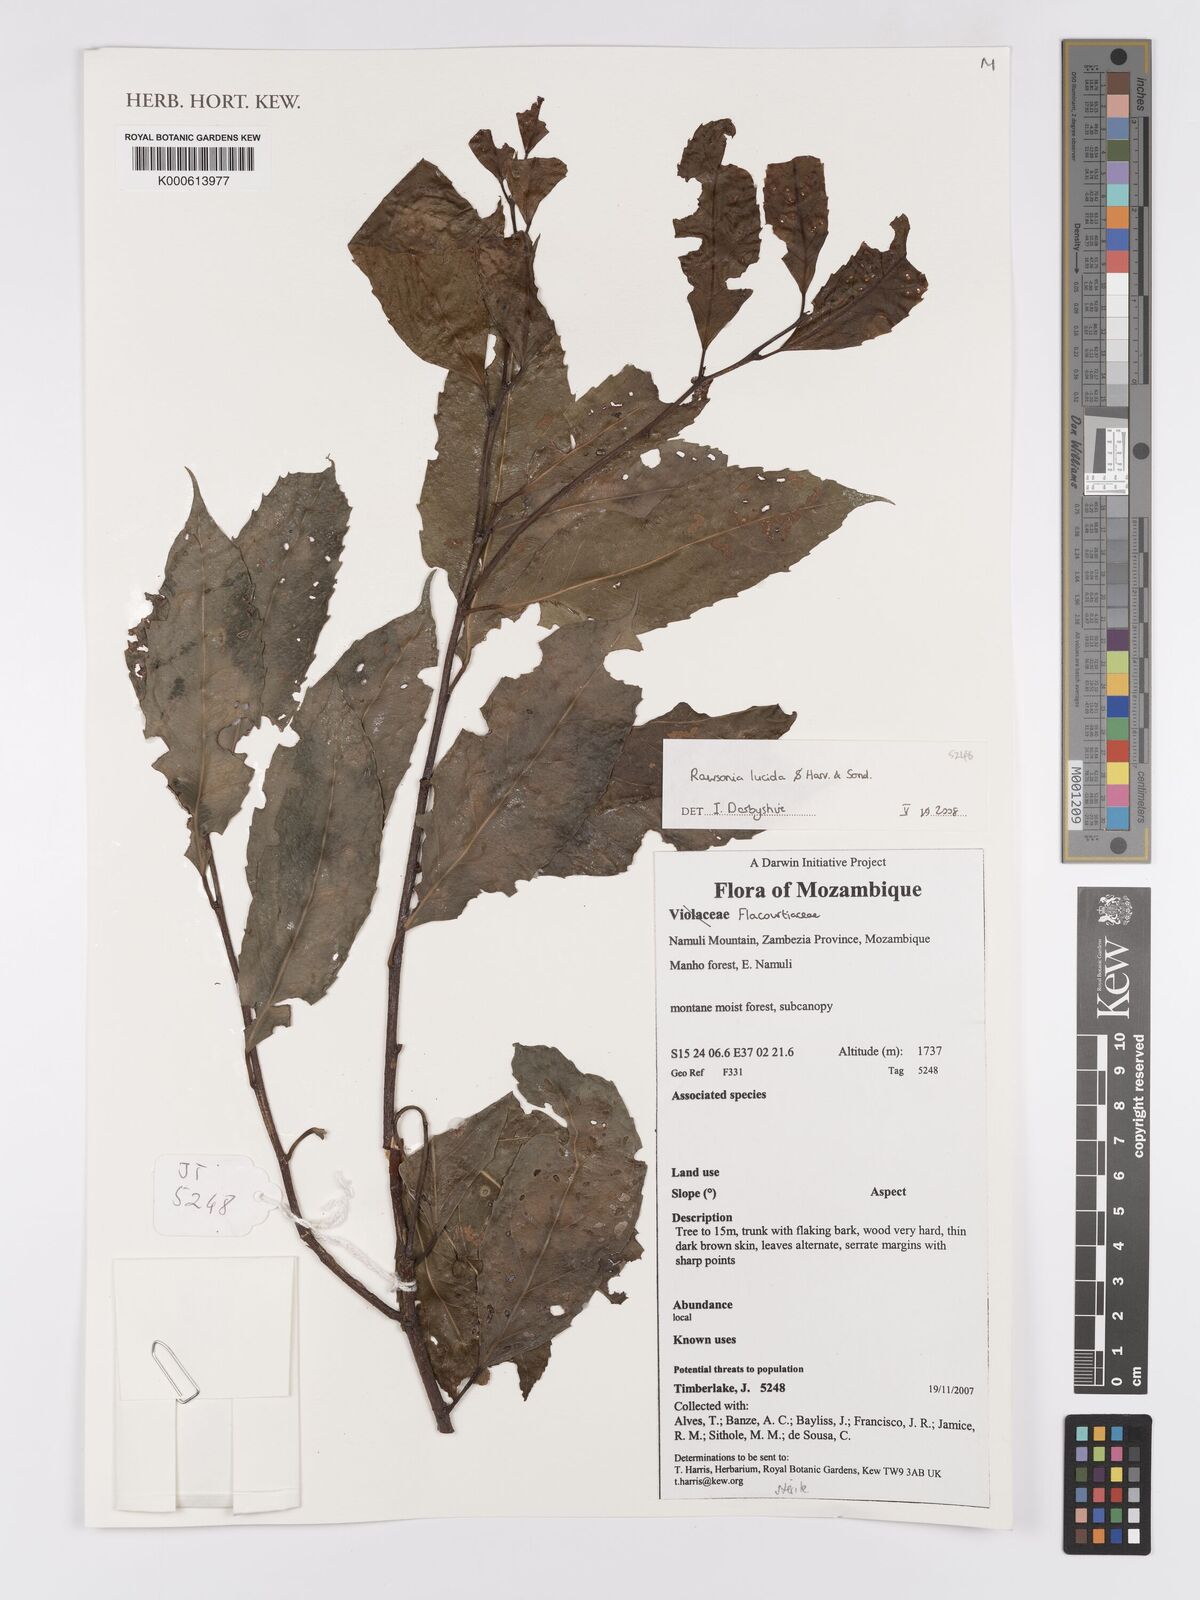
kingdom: Plantae
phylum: Tracheophyta
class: Magnoliopsida
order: Malpighiales
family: Achariaceae
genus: Rawsonia
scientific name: Rawsonia lucida
